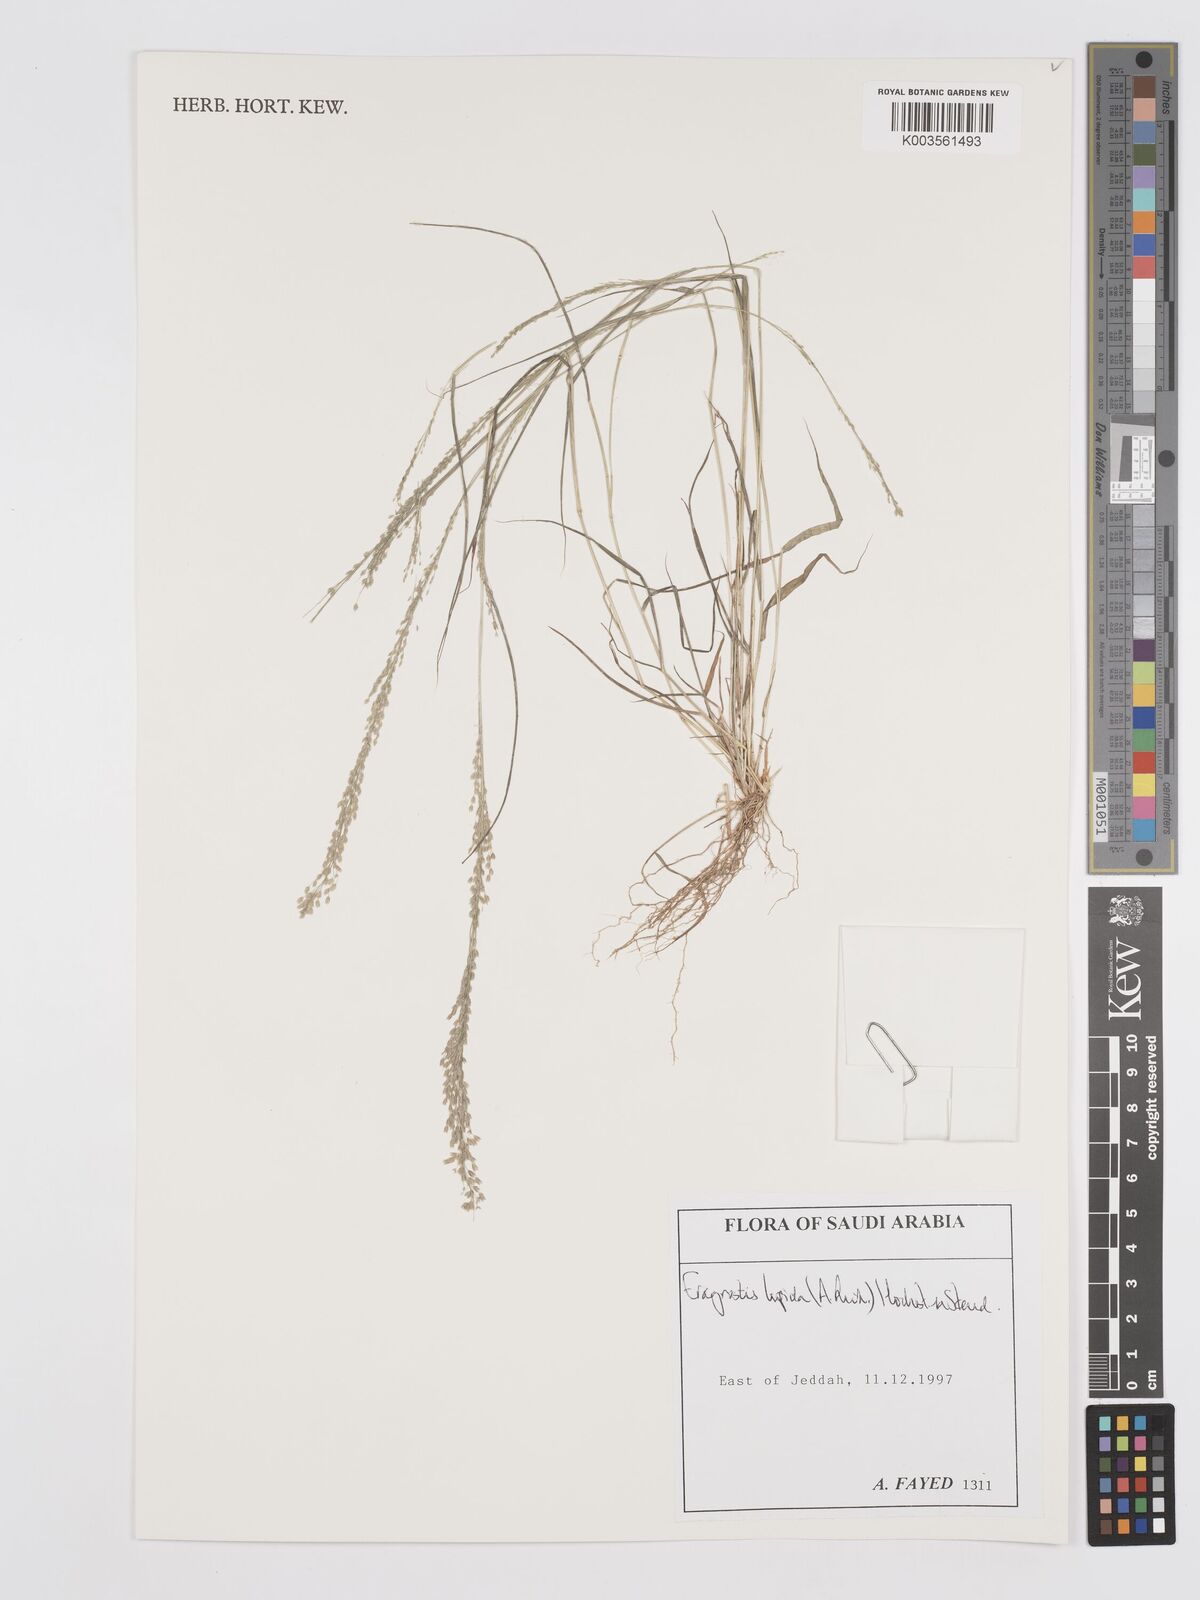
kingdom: Plantae
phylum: Tracheophyta
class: Liliopsida
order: Poales
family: Poaceae
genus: Eragrostis
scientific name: Eragrostis lepida
